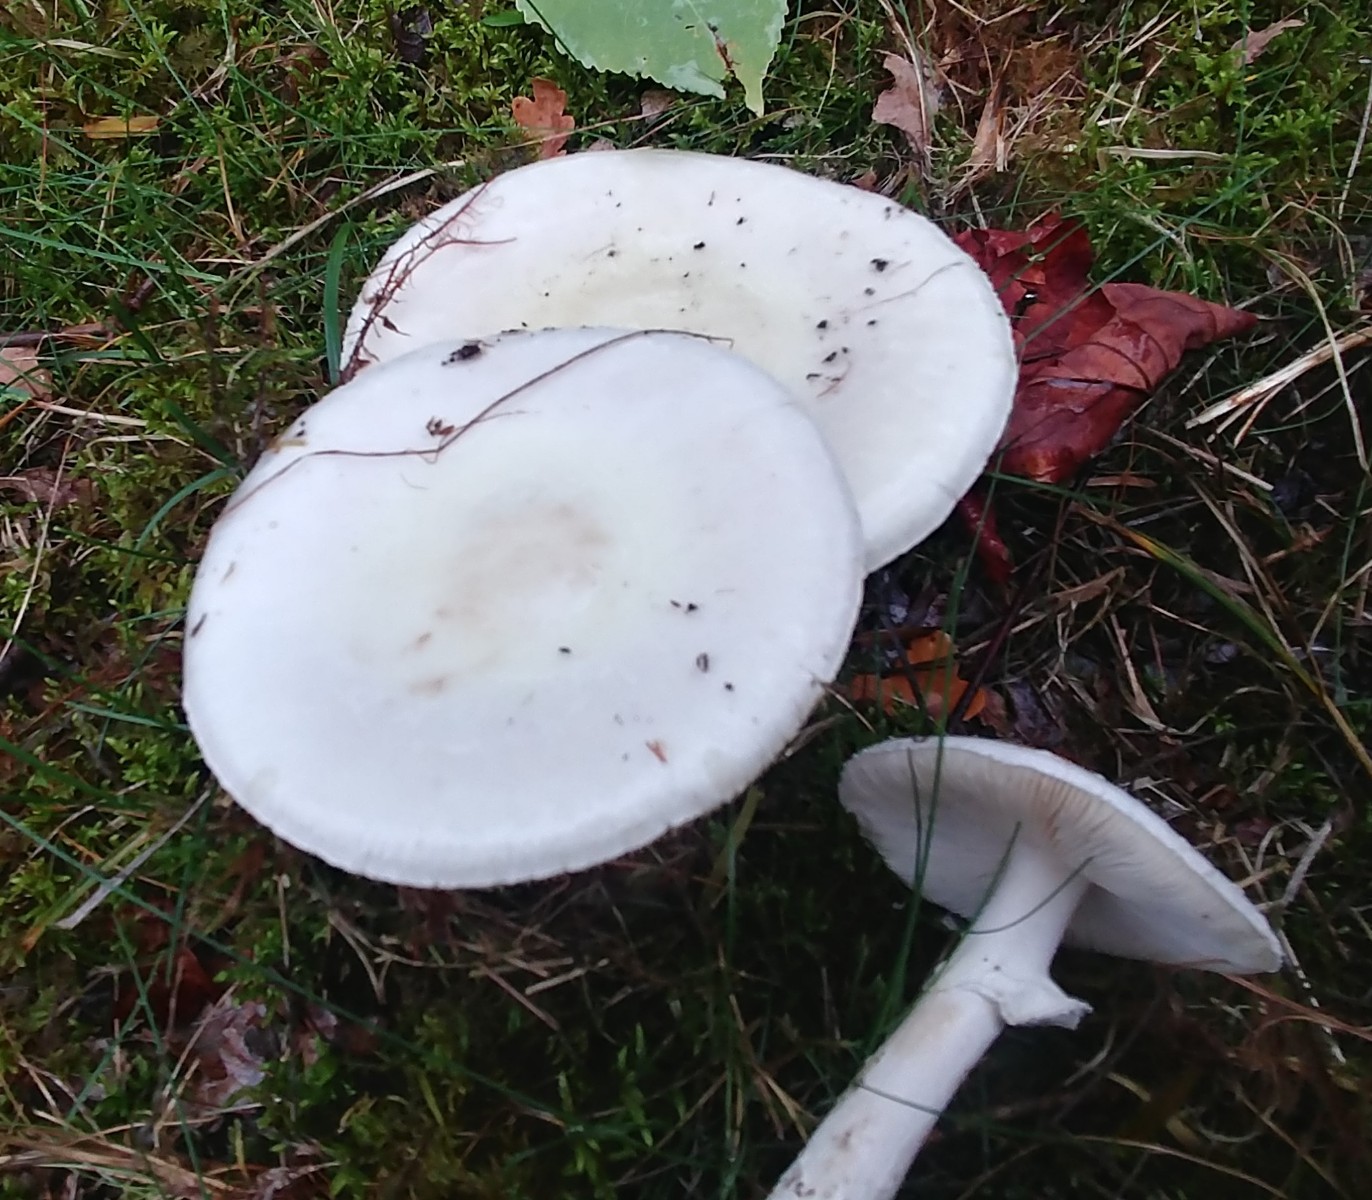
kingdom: Fungi
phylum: Basidiomycota
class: Agaricomycetes
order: Agaricales
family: Amanitaceae
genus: Amanita
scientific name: Amanita citrina
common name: kugleknoldet fluesvamp
